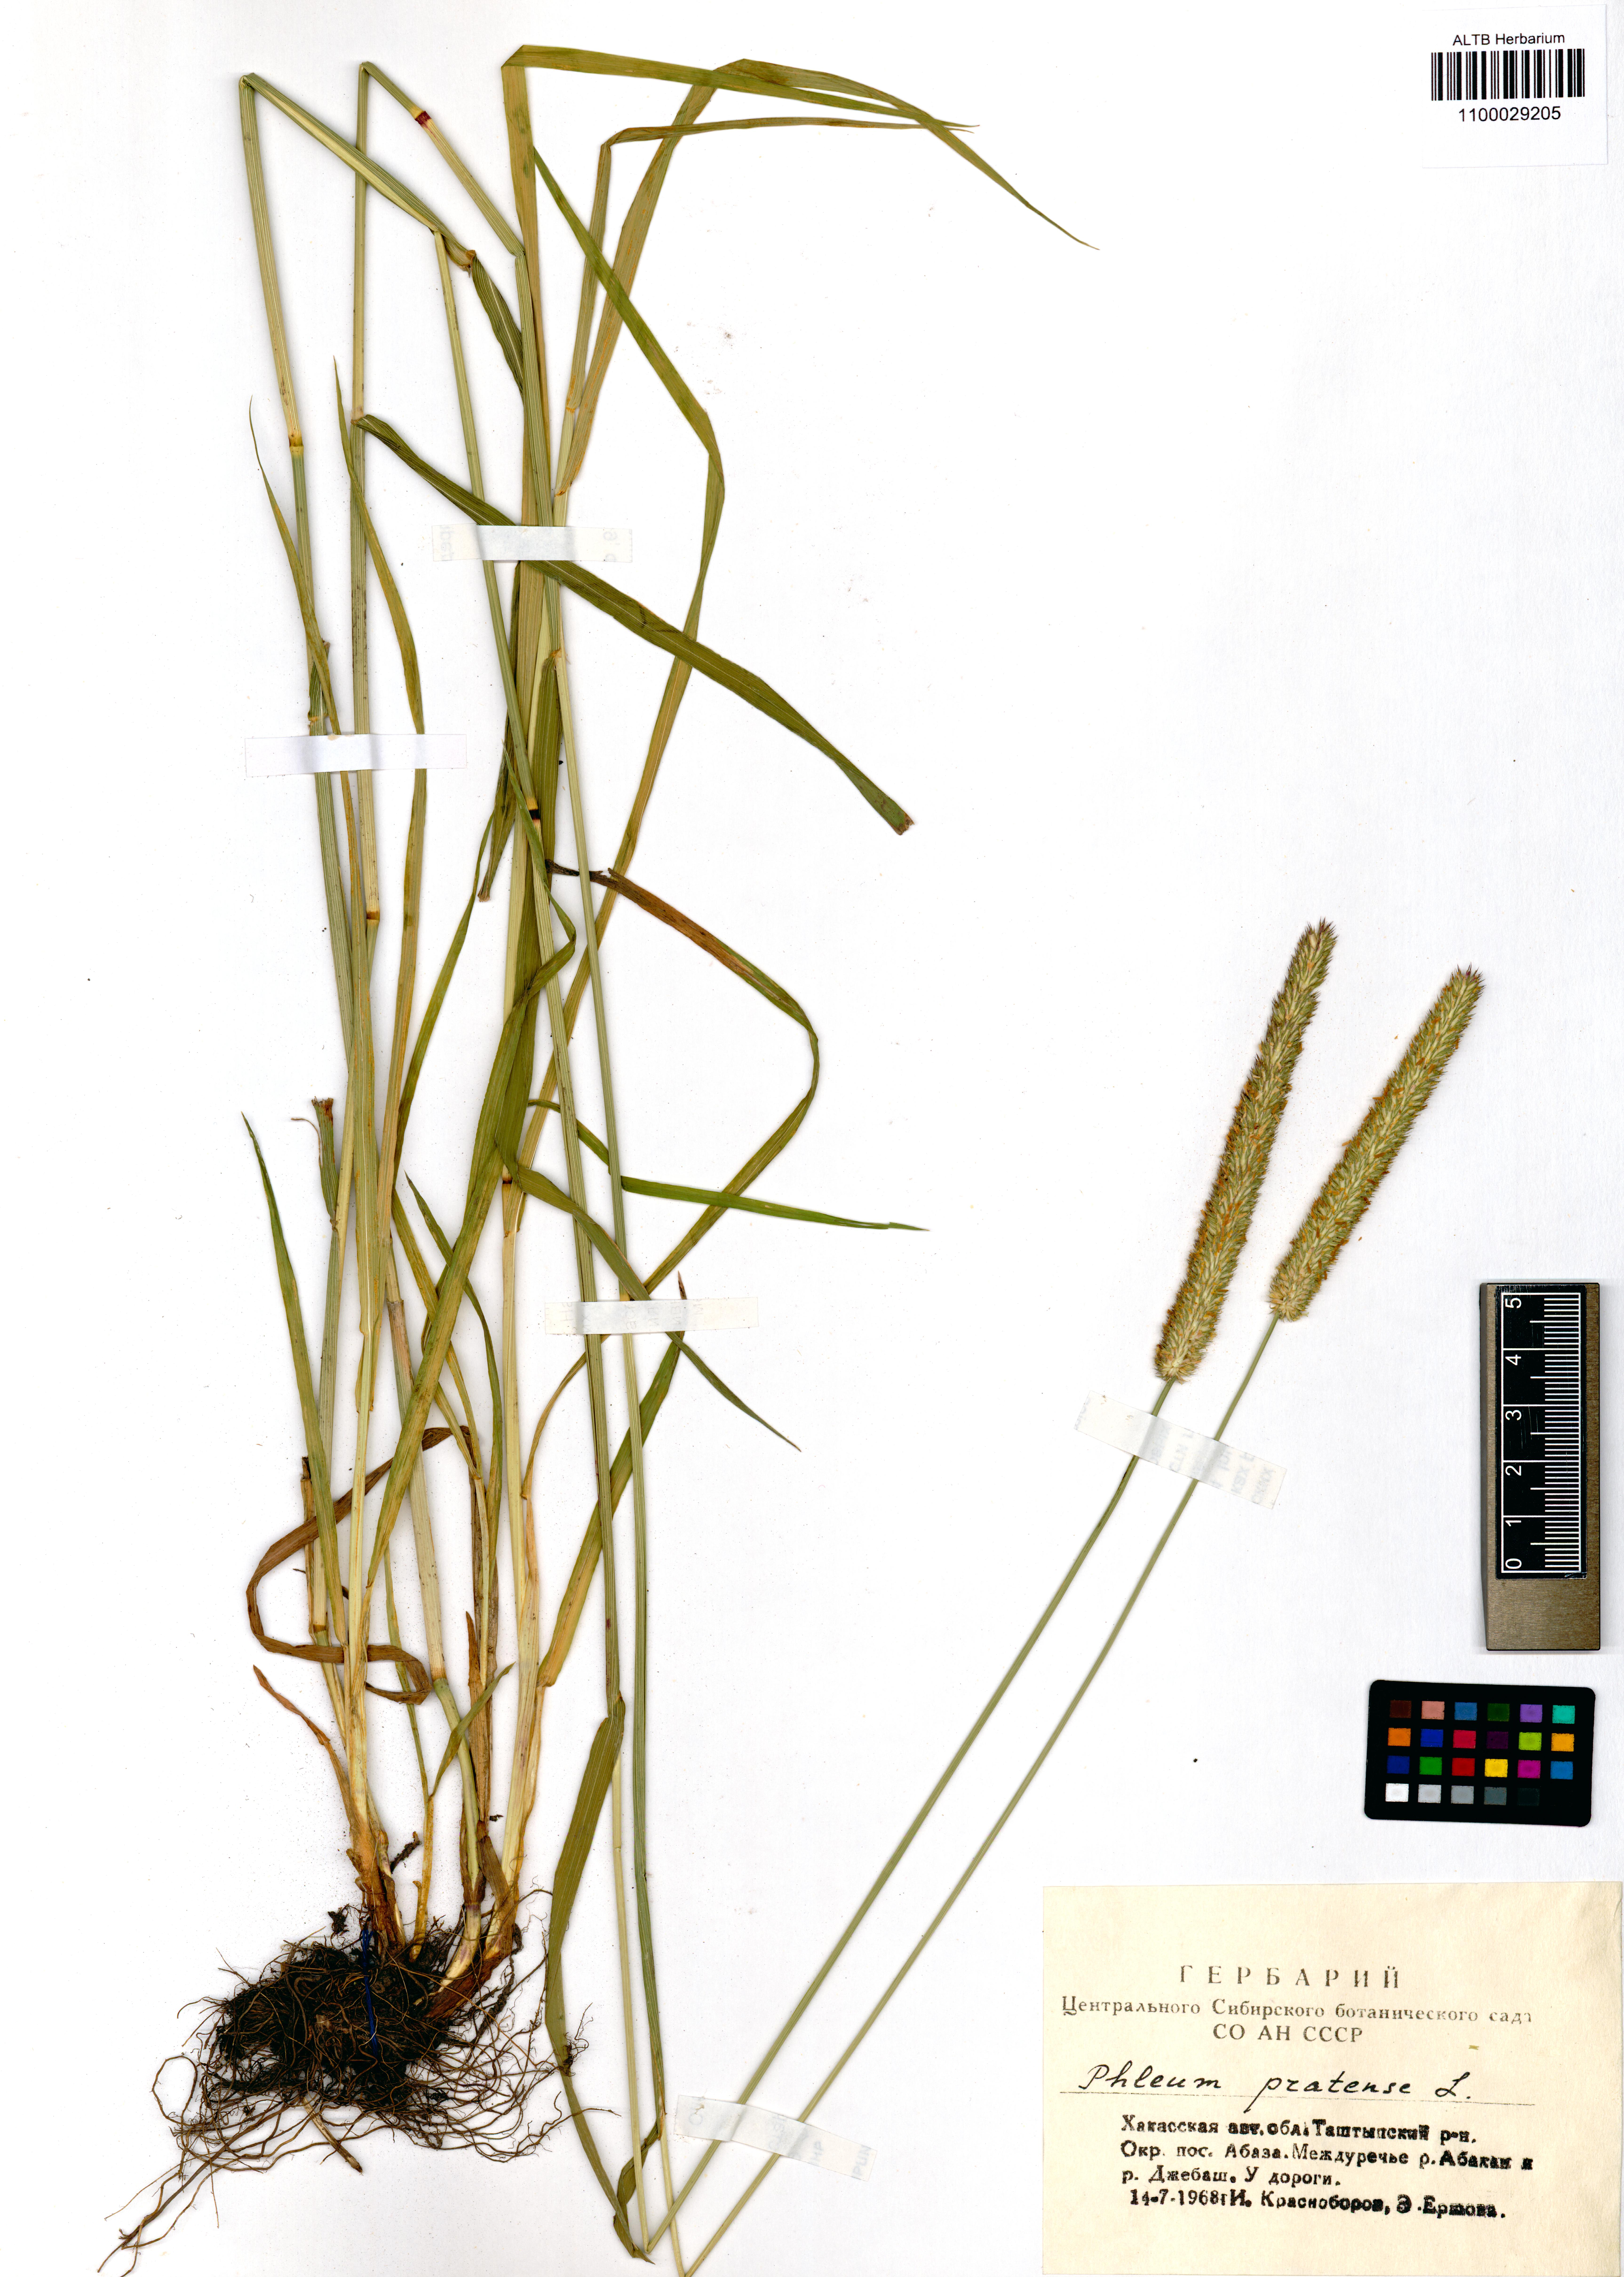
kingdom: Plantae
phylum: Tracheophyta
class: Liliopsida
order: Poales
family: Poaceae
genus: Phleum
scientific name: Phleum pratense
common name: Timothy grass
